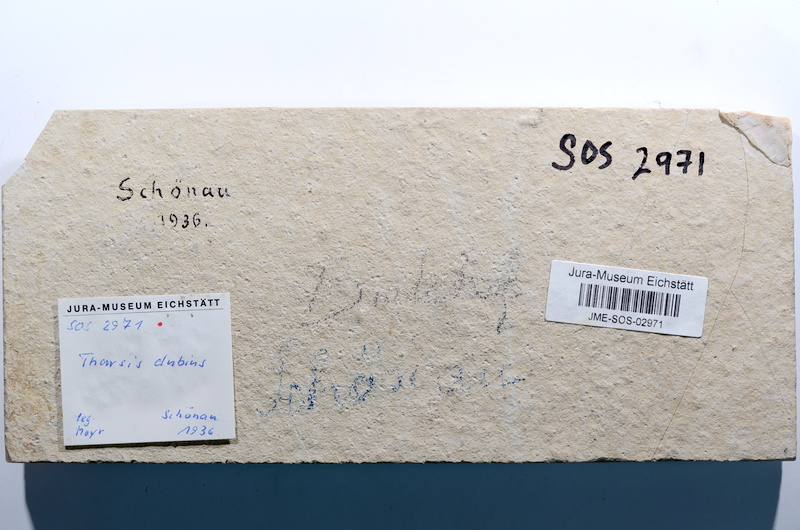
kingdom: Animalia
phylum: Chordata
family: Ascalaboidae
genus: Tharsis
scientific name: Tharsis dubius
